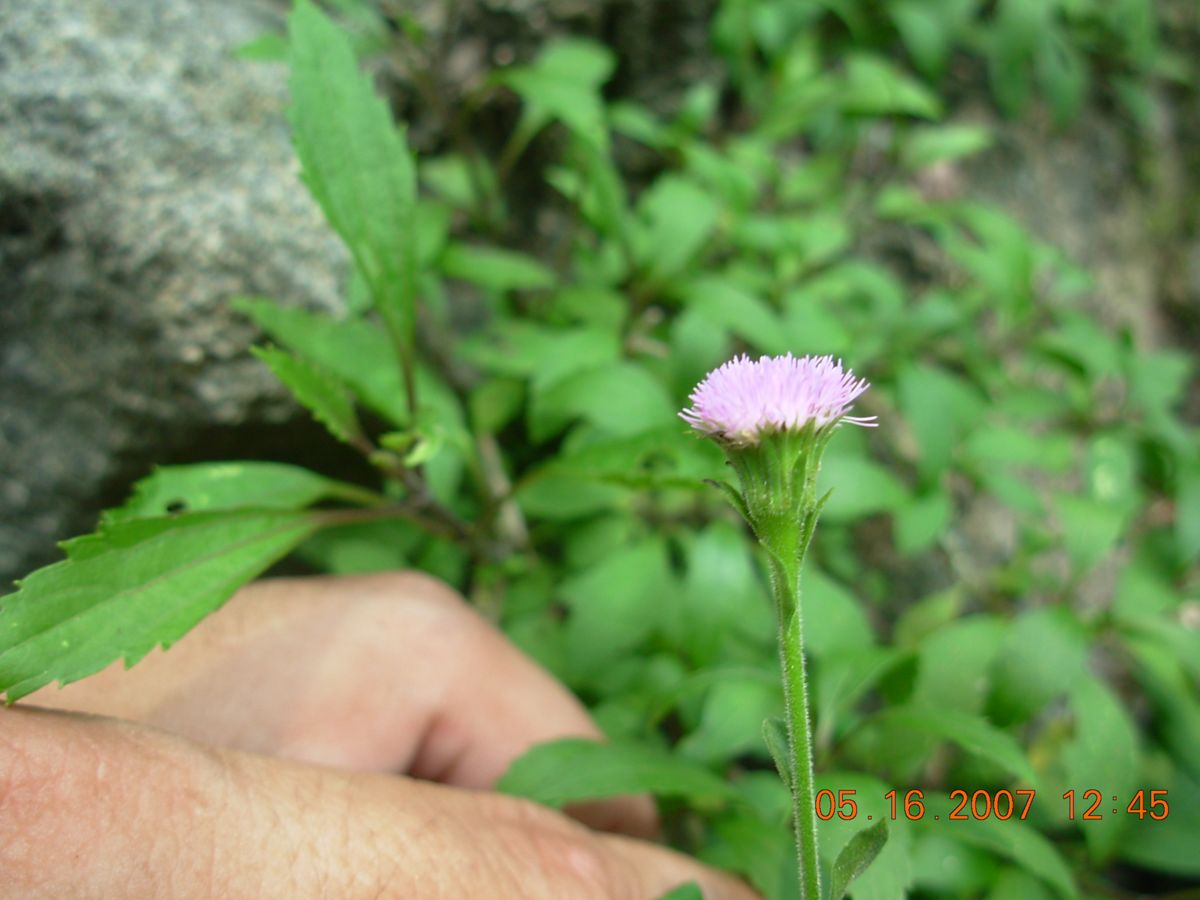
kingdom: Plantae
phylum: Tracheophyta
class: Magnoliopsida
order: Asterales
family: Asteraceae
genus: Fleischmannia
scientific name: Fleischmannia arguta
